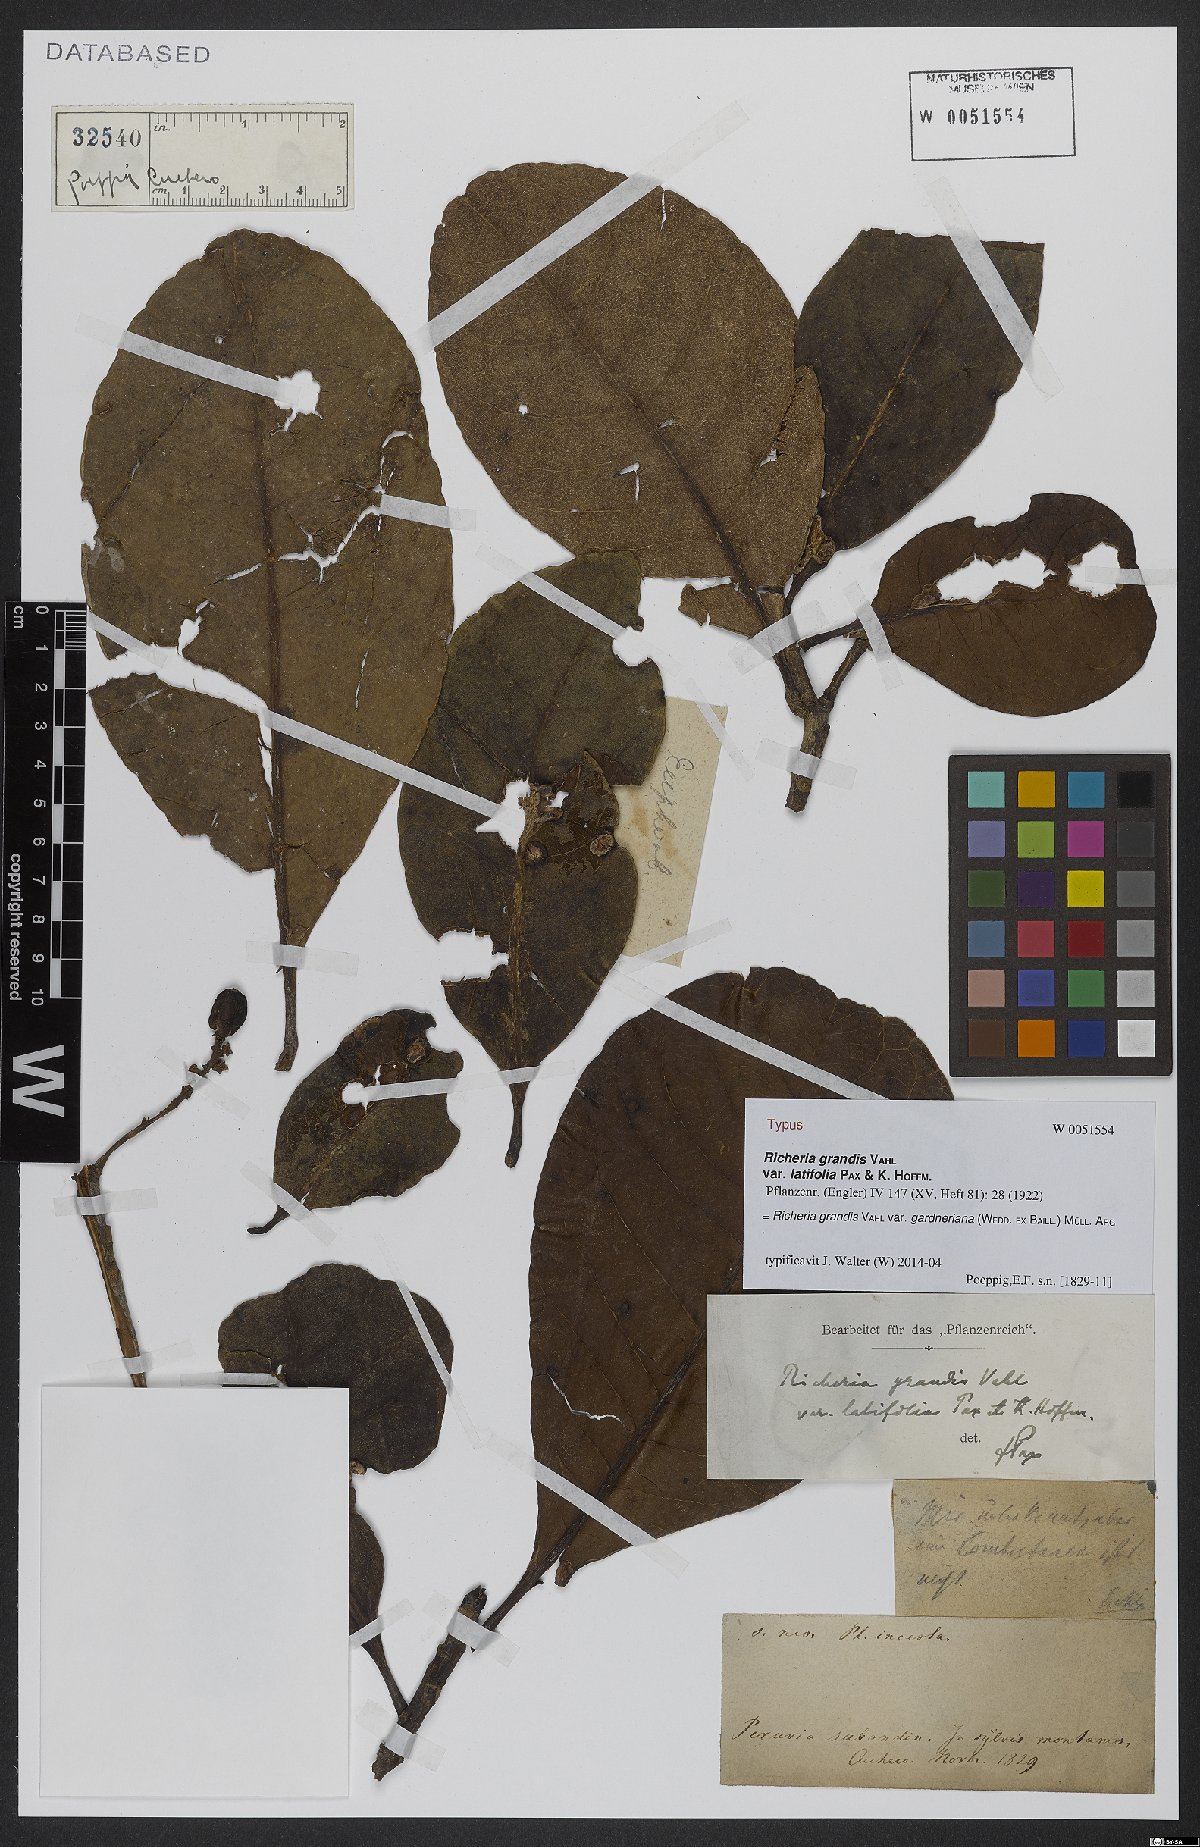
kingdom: Plantae
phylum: Tracheophyta
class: Magnoliopsida
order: Malpighiales
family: Phyllanthaceae
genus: Richeria
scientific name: Richeria grandis
